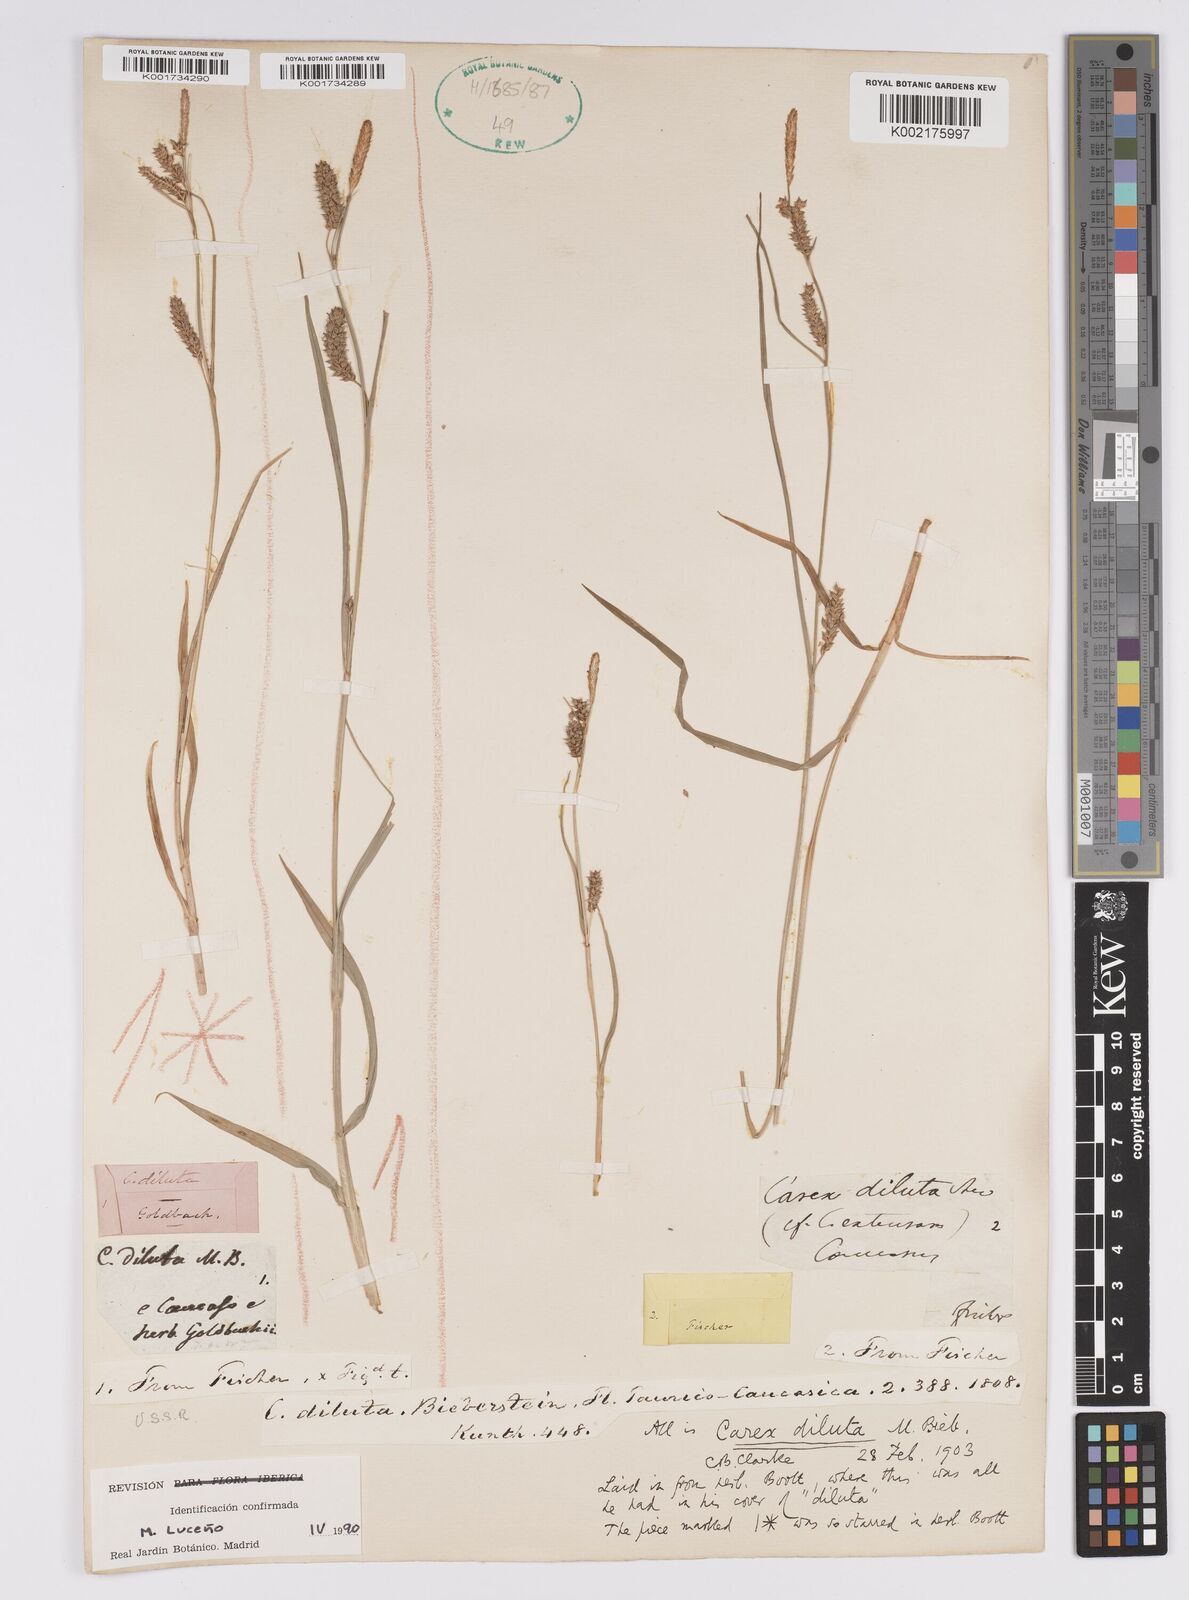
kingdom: Plantae
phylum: Tracheophyta
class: Liliopsida
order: Poales
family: Cyperaceae
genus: Carex
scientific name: Carex diluta
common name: Sedge
